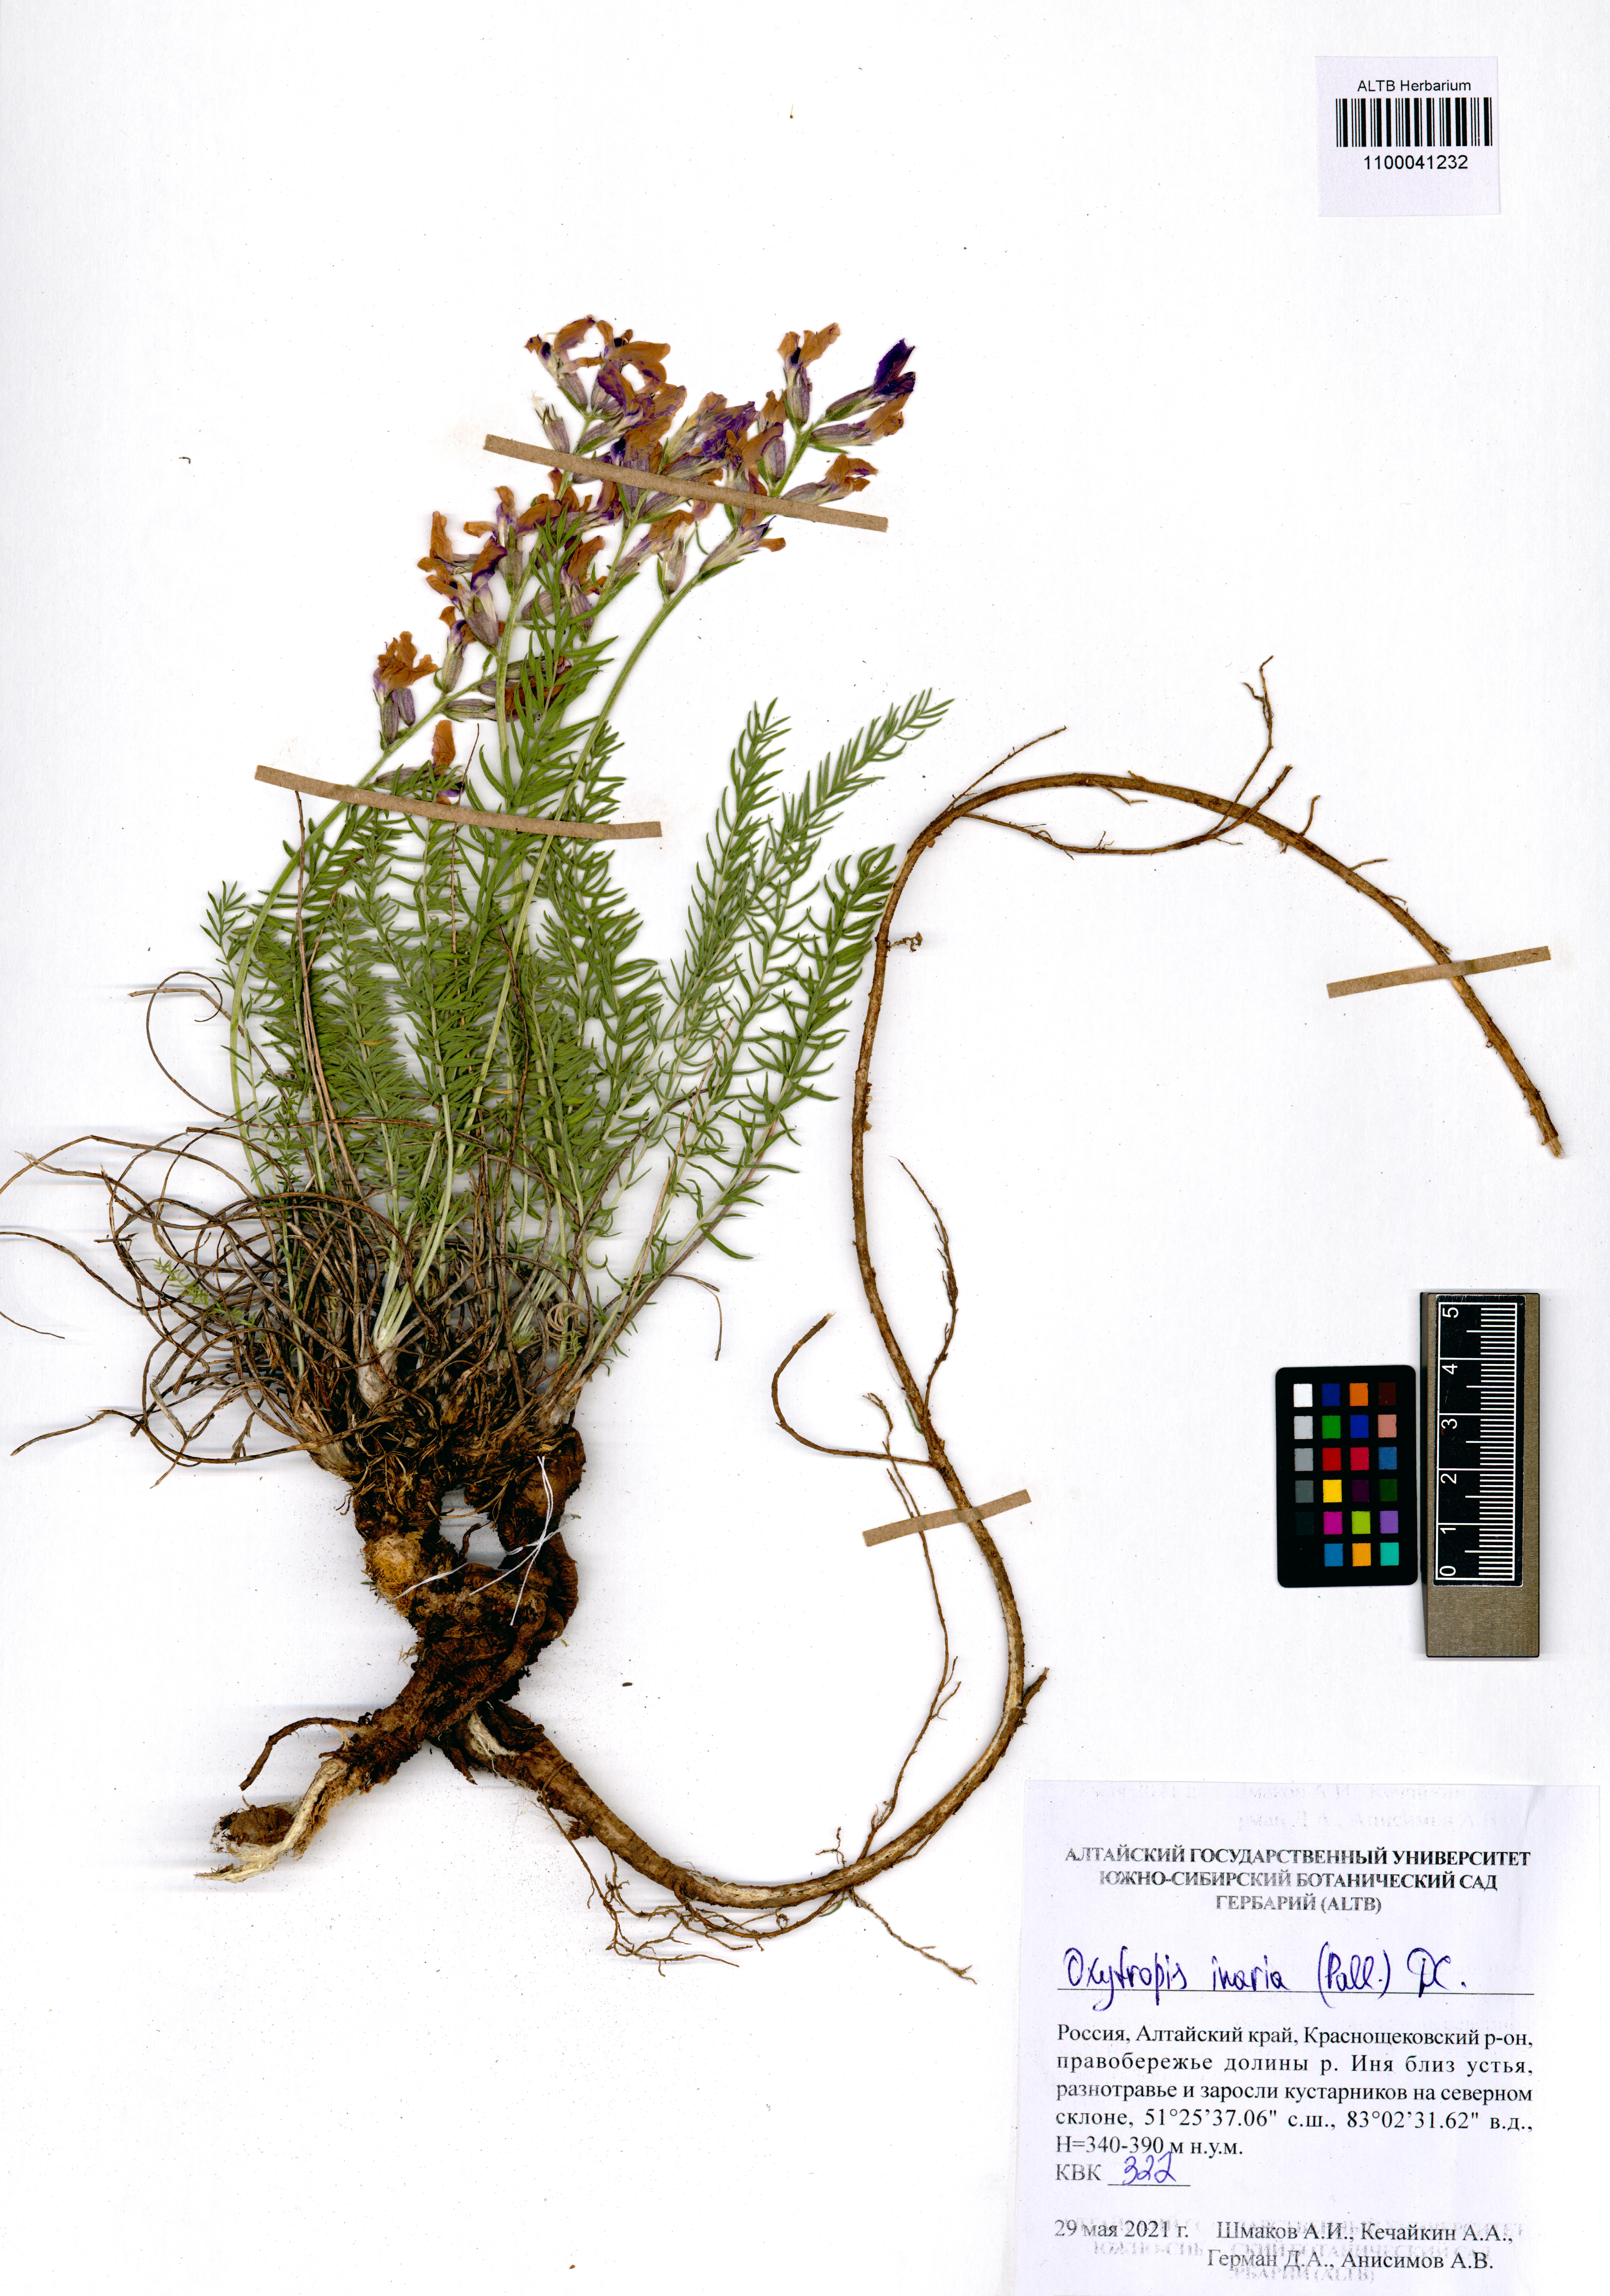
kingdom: Plantae
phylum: Tracheophyta
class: Magnoliopsida
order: Fabales
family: Fabaceae
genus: Oxytropis
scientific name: Oxytropis inaria
